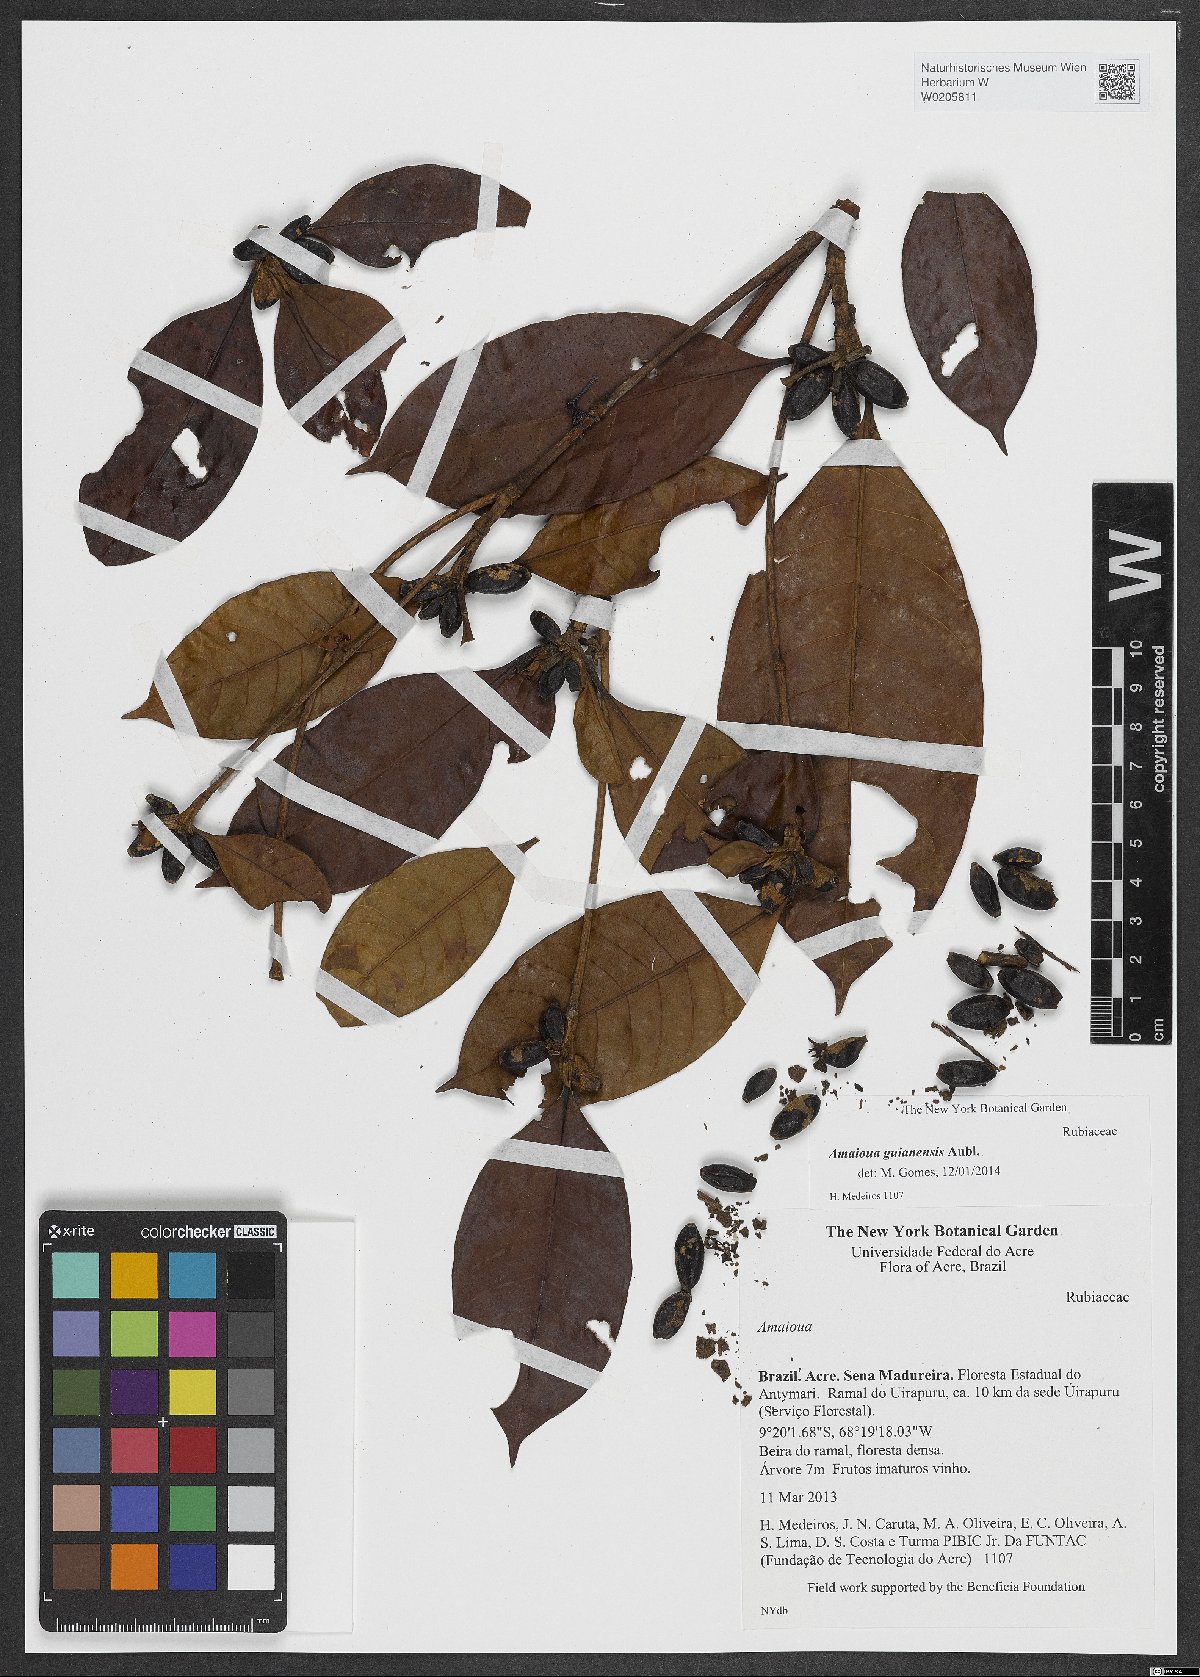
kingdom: Plantae
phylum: Tracheophyta
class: Magnoliopsida
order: Gentianales
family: Rubiaceae
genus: Amaioua
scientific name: Amaioua guianensis
